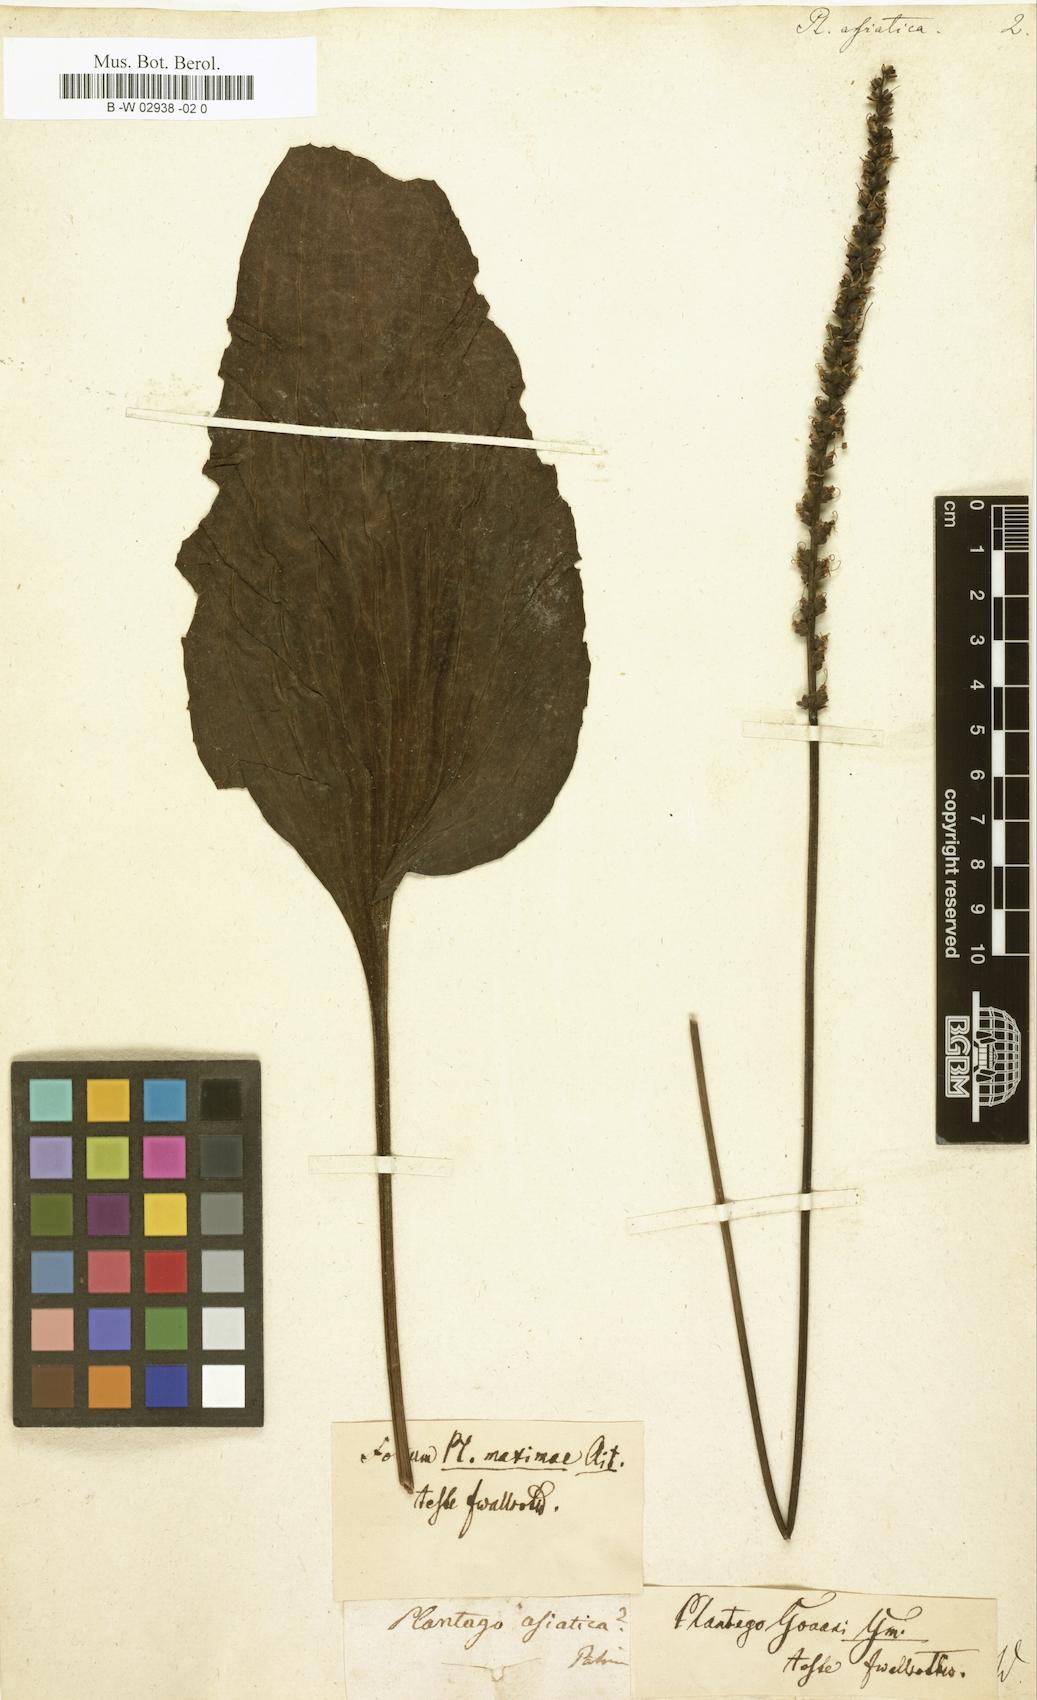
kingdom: Plantae
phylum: Tracheophyta
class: Magnoliopsida
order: Lamiales
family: Plantaginaceae
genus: Plantago
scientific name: Plantago asiatica
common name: Psyllium
